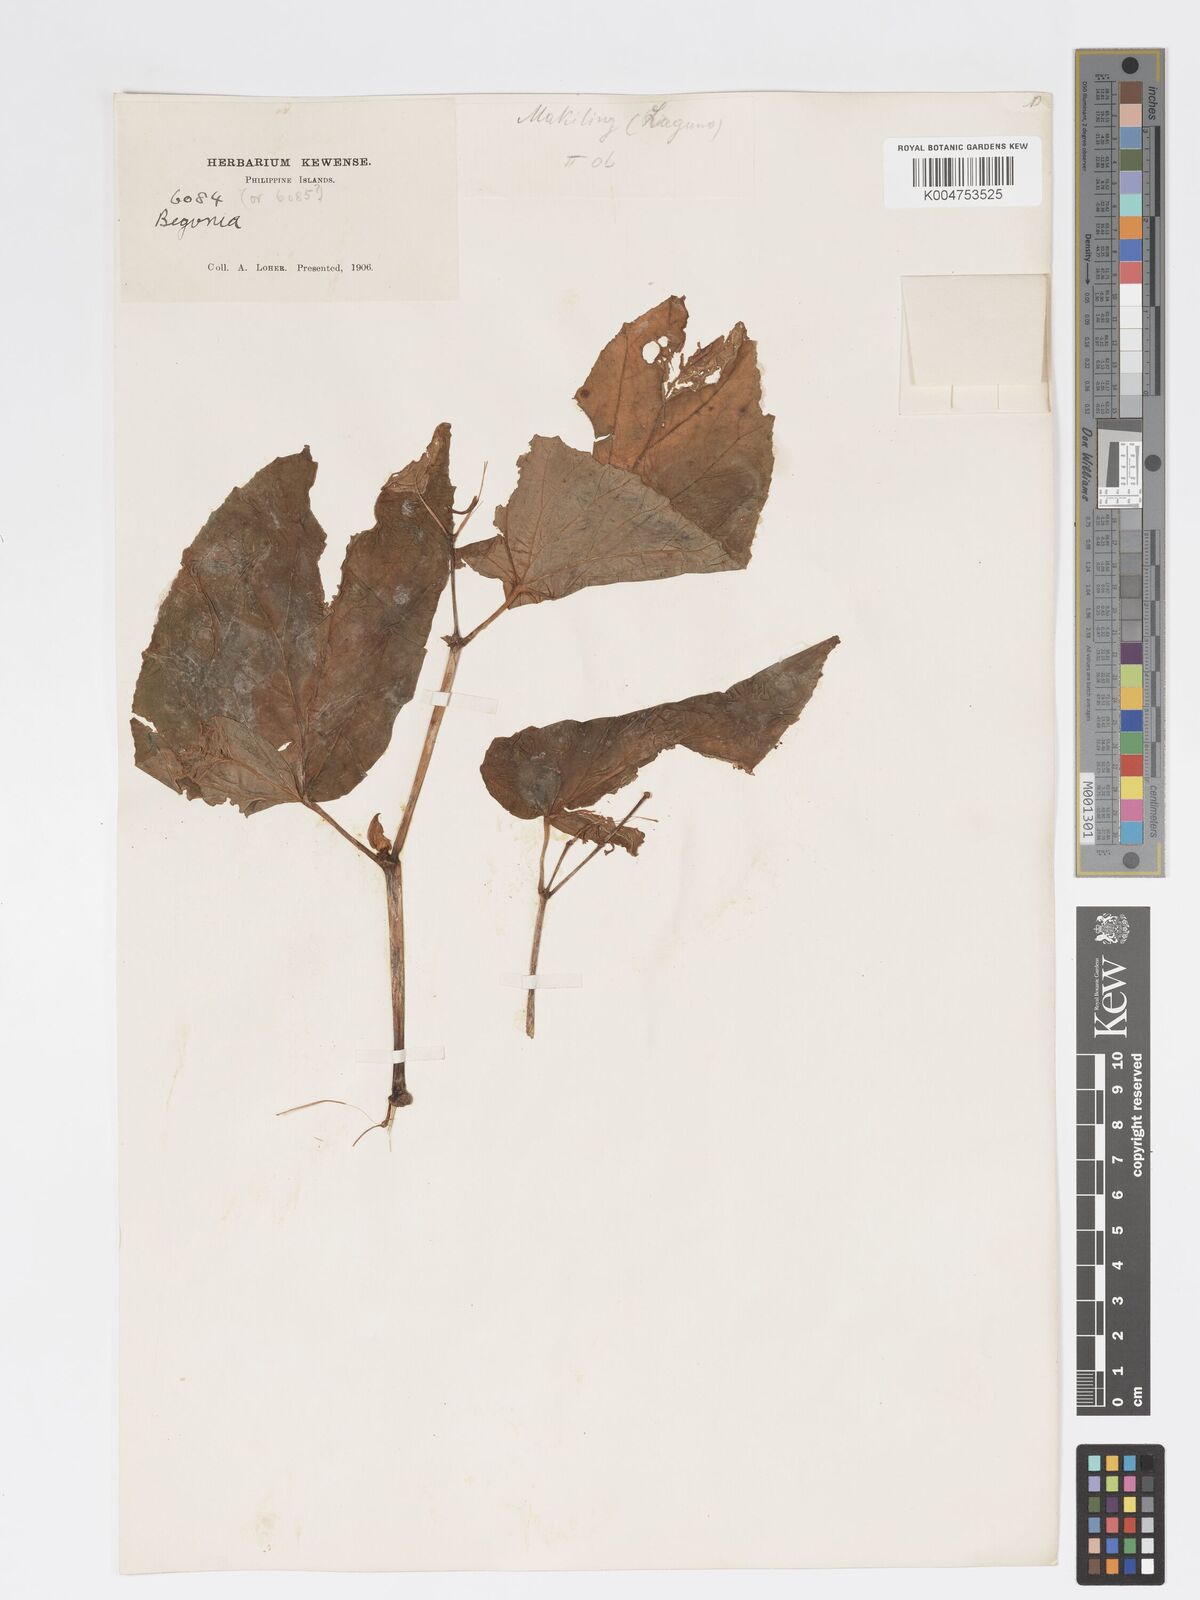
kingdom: Plantae
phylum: Tracheophyta
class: Magnoliopsida
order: Cucurbitales
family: Begoniaceae
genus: Begonia
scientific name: Begonia
